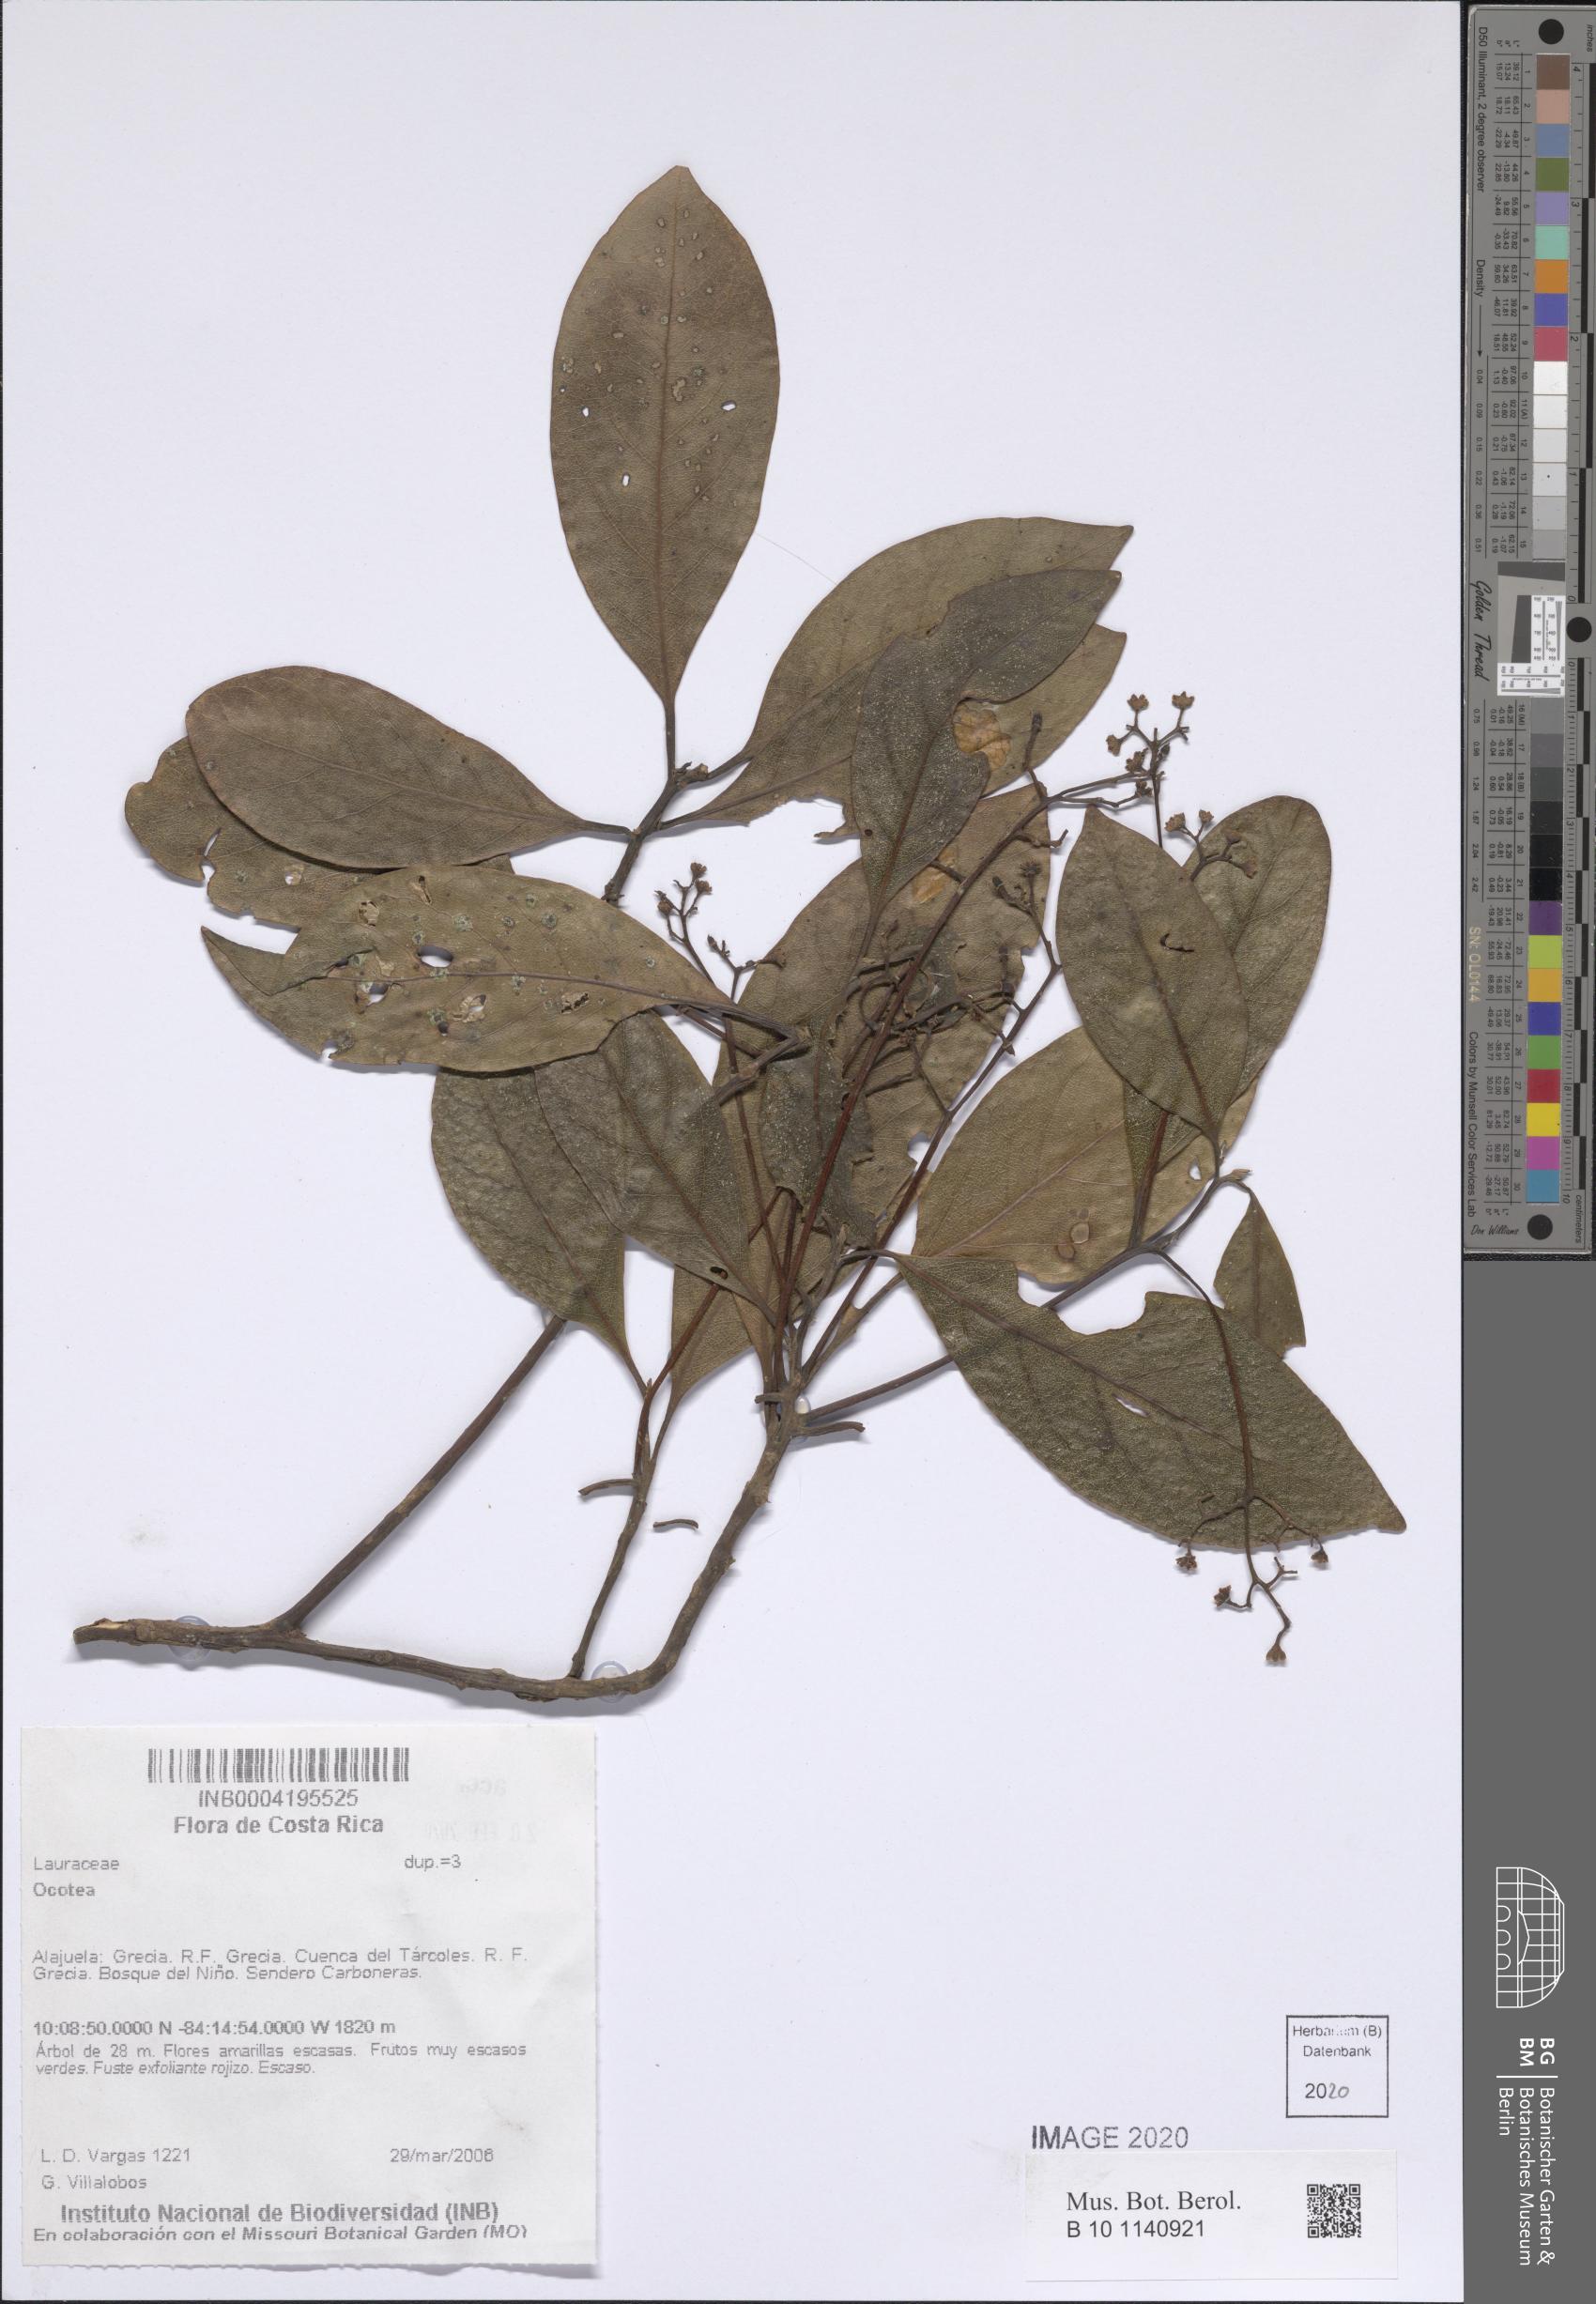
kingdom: Plantae
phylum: Tracheophyta
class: Magnoliopsida
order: Laurales
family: Lauraceae
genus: Ocotea
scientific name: Ocotea
